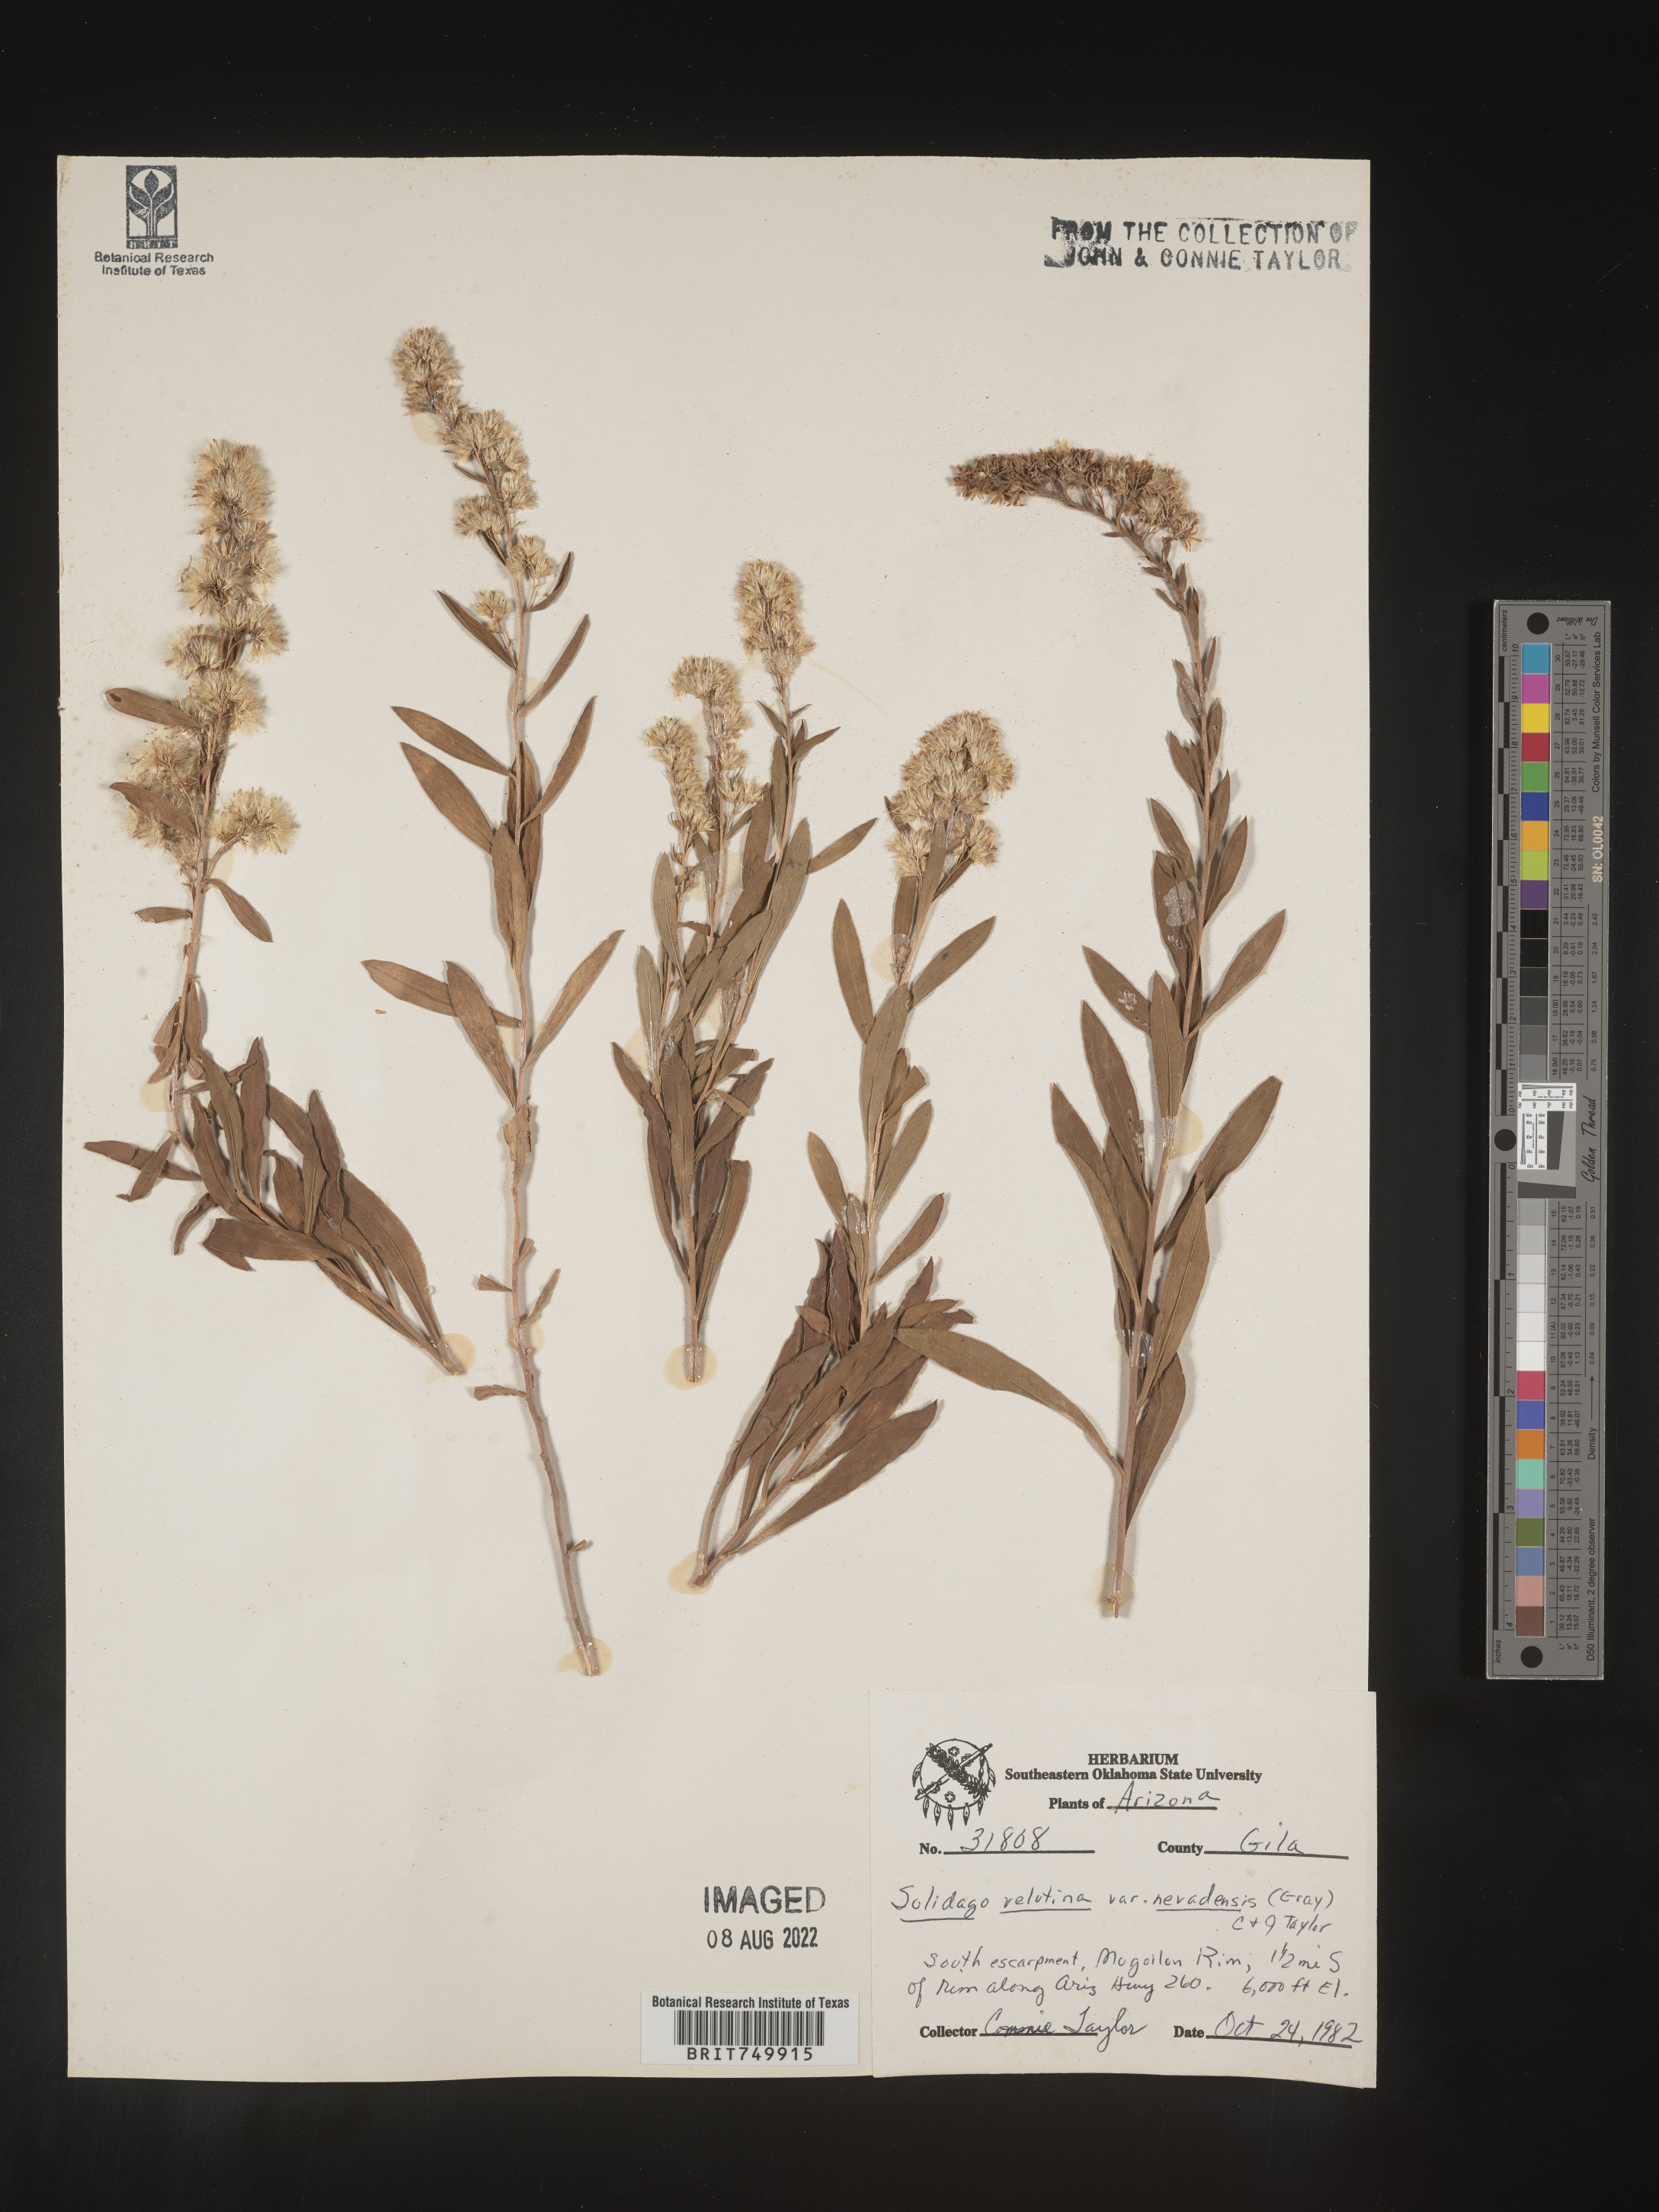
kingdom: Plantae
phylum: Tracheophyta
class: Magnoliopsida
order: Asterales
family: Asteraceae
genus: Solidago
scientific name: Solidago velutina
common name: Three-nerve goldenrod
